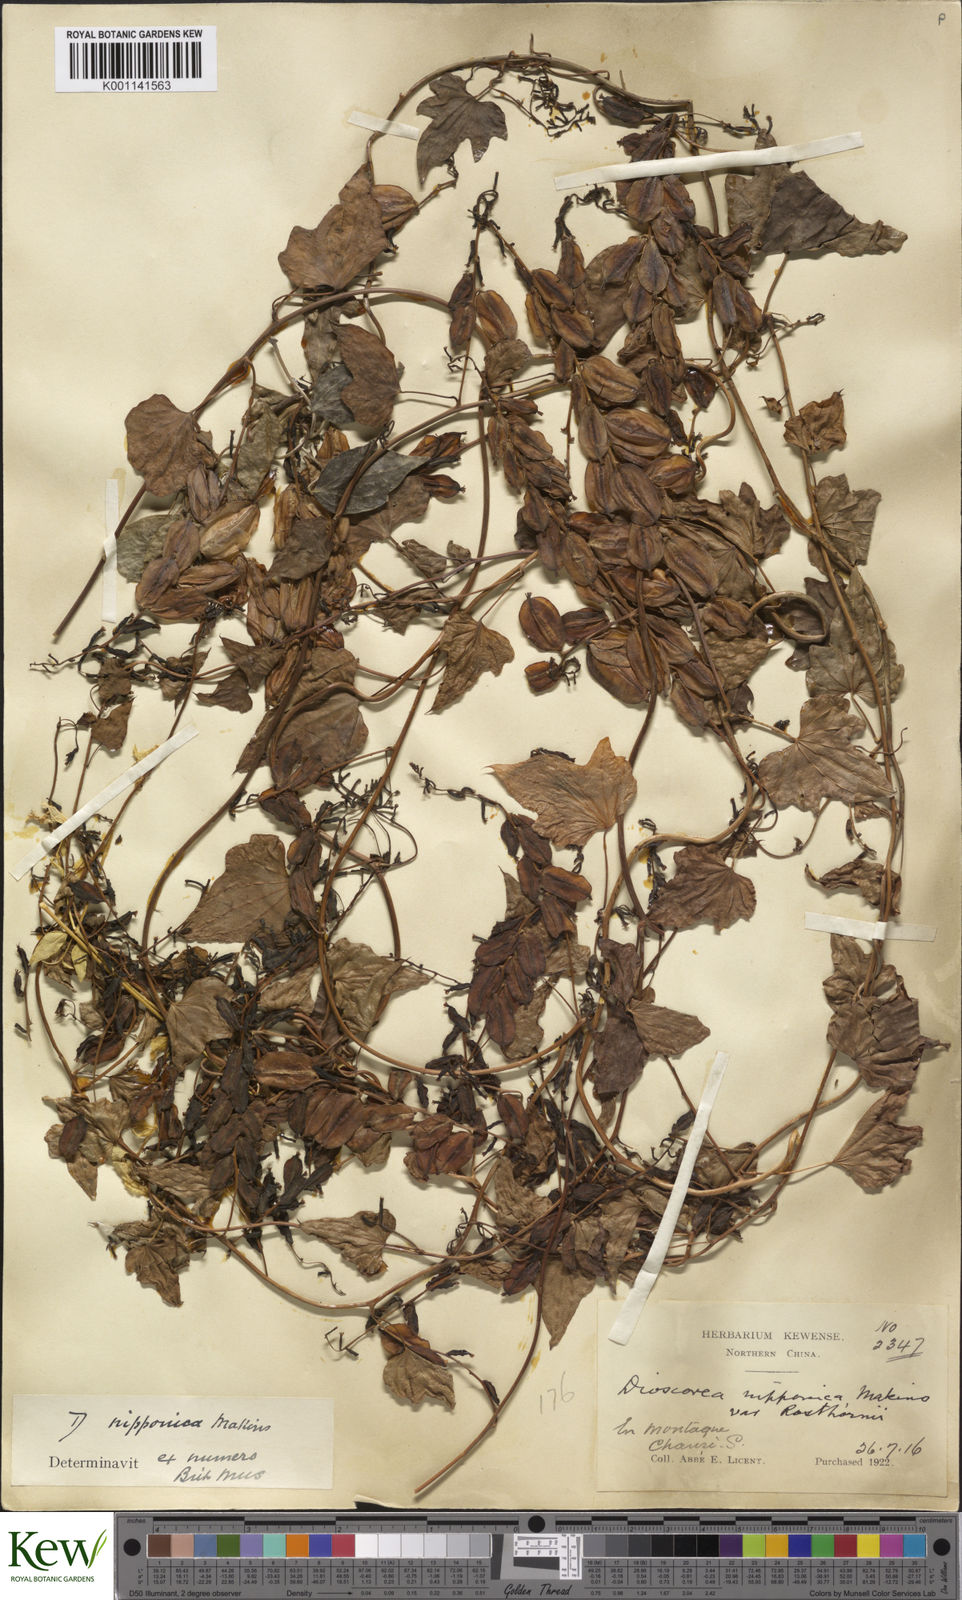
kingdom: Plantae
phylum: Tracheophyta
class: Liliopsida
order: Dioscoreales
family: Dioscoreaceae
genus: Dioscorea
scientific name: Dioscorea nipponica
